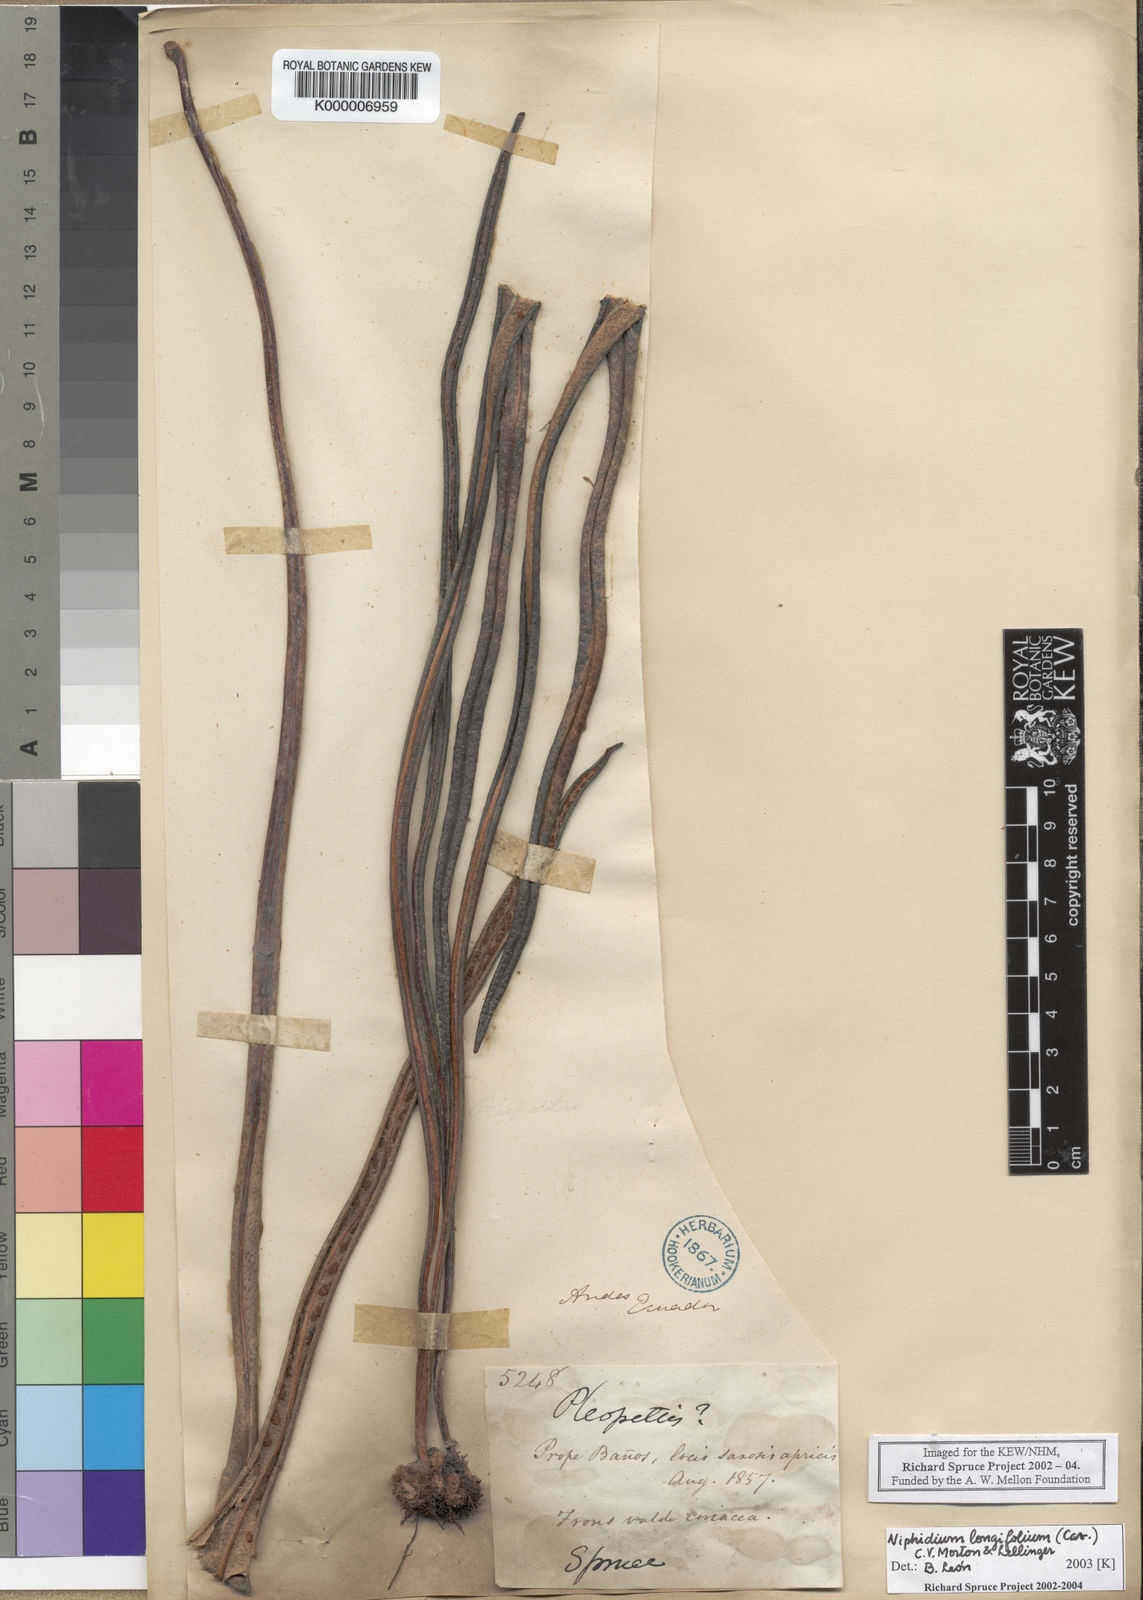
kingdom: Plantae
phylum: Tracheophyta
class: Polypodiopsida
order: Polypodiales
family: Polypodiaceae
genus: Niphidium
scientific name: Niphidium longifolium
